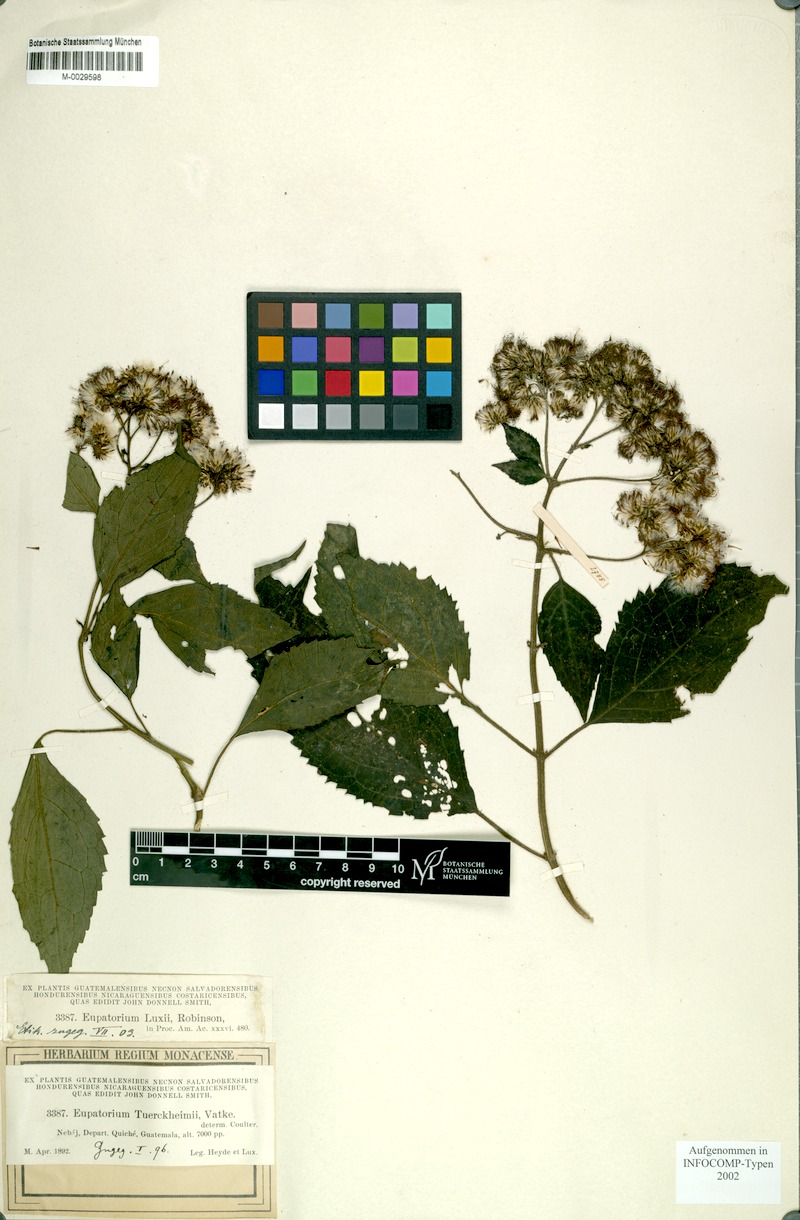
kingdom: Plantae
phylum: Tracheophyta
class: Magnoliopsida
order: Asterales
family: Asteraceae
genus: Bartlettina
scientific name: Bartlettina luxii
